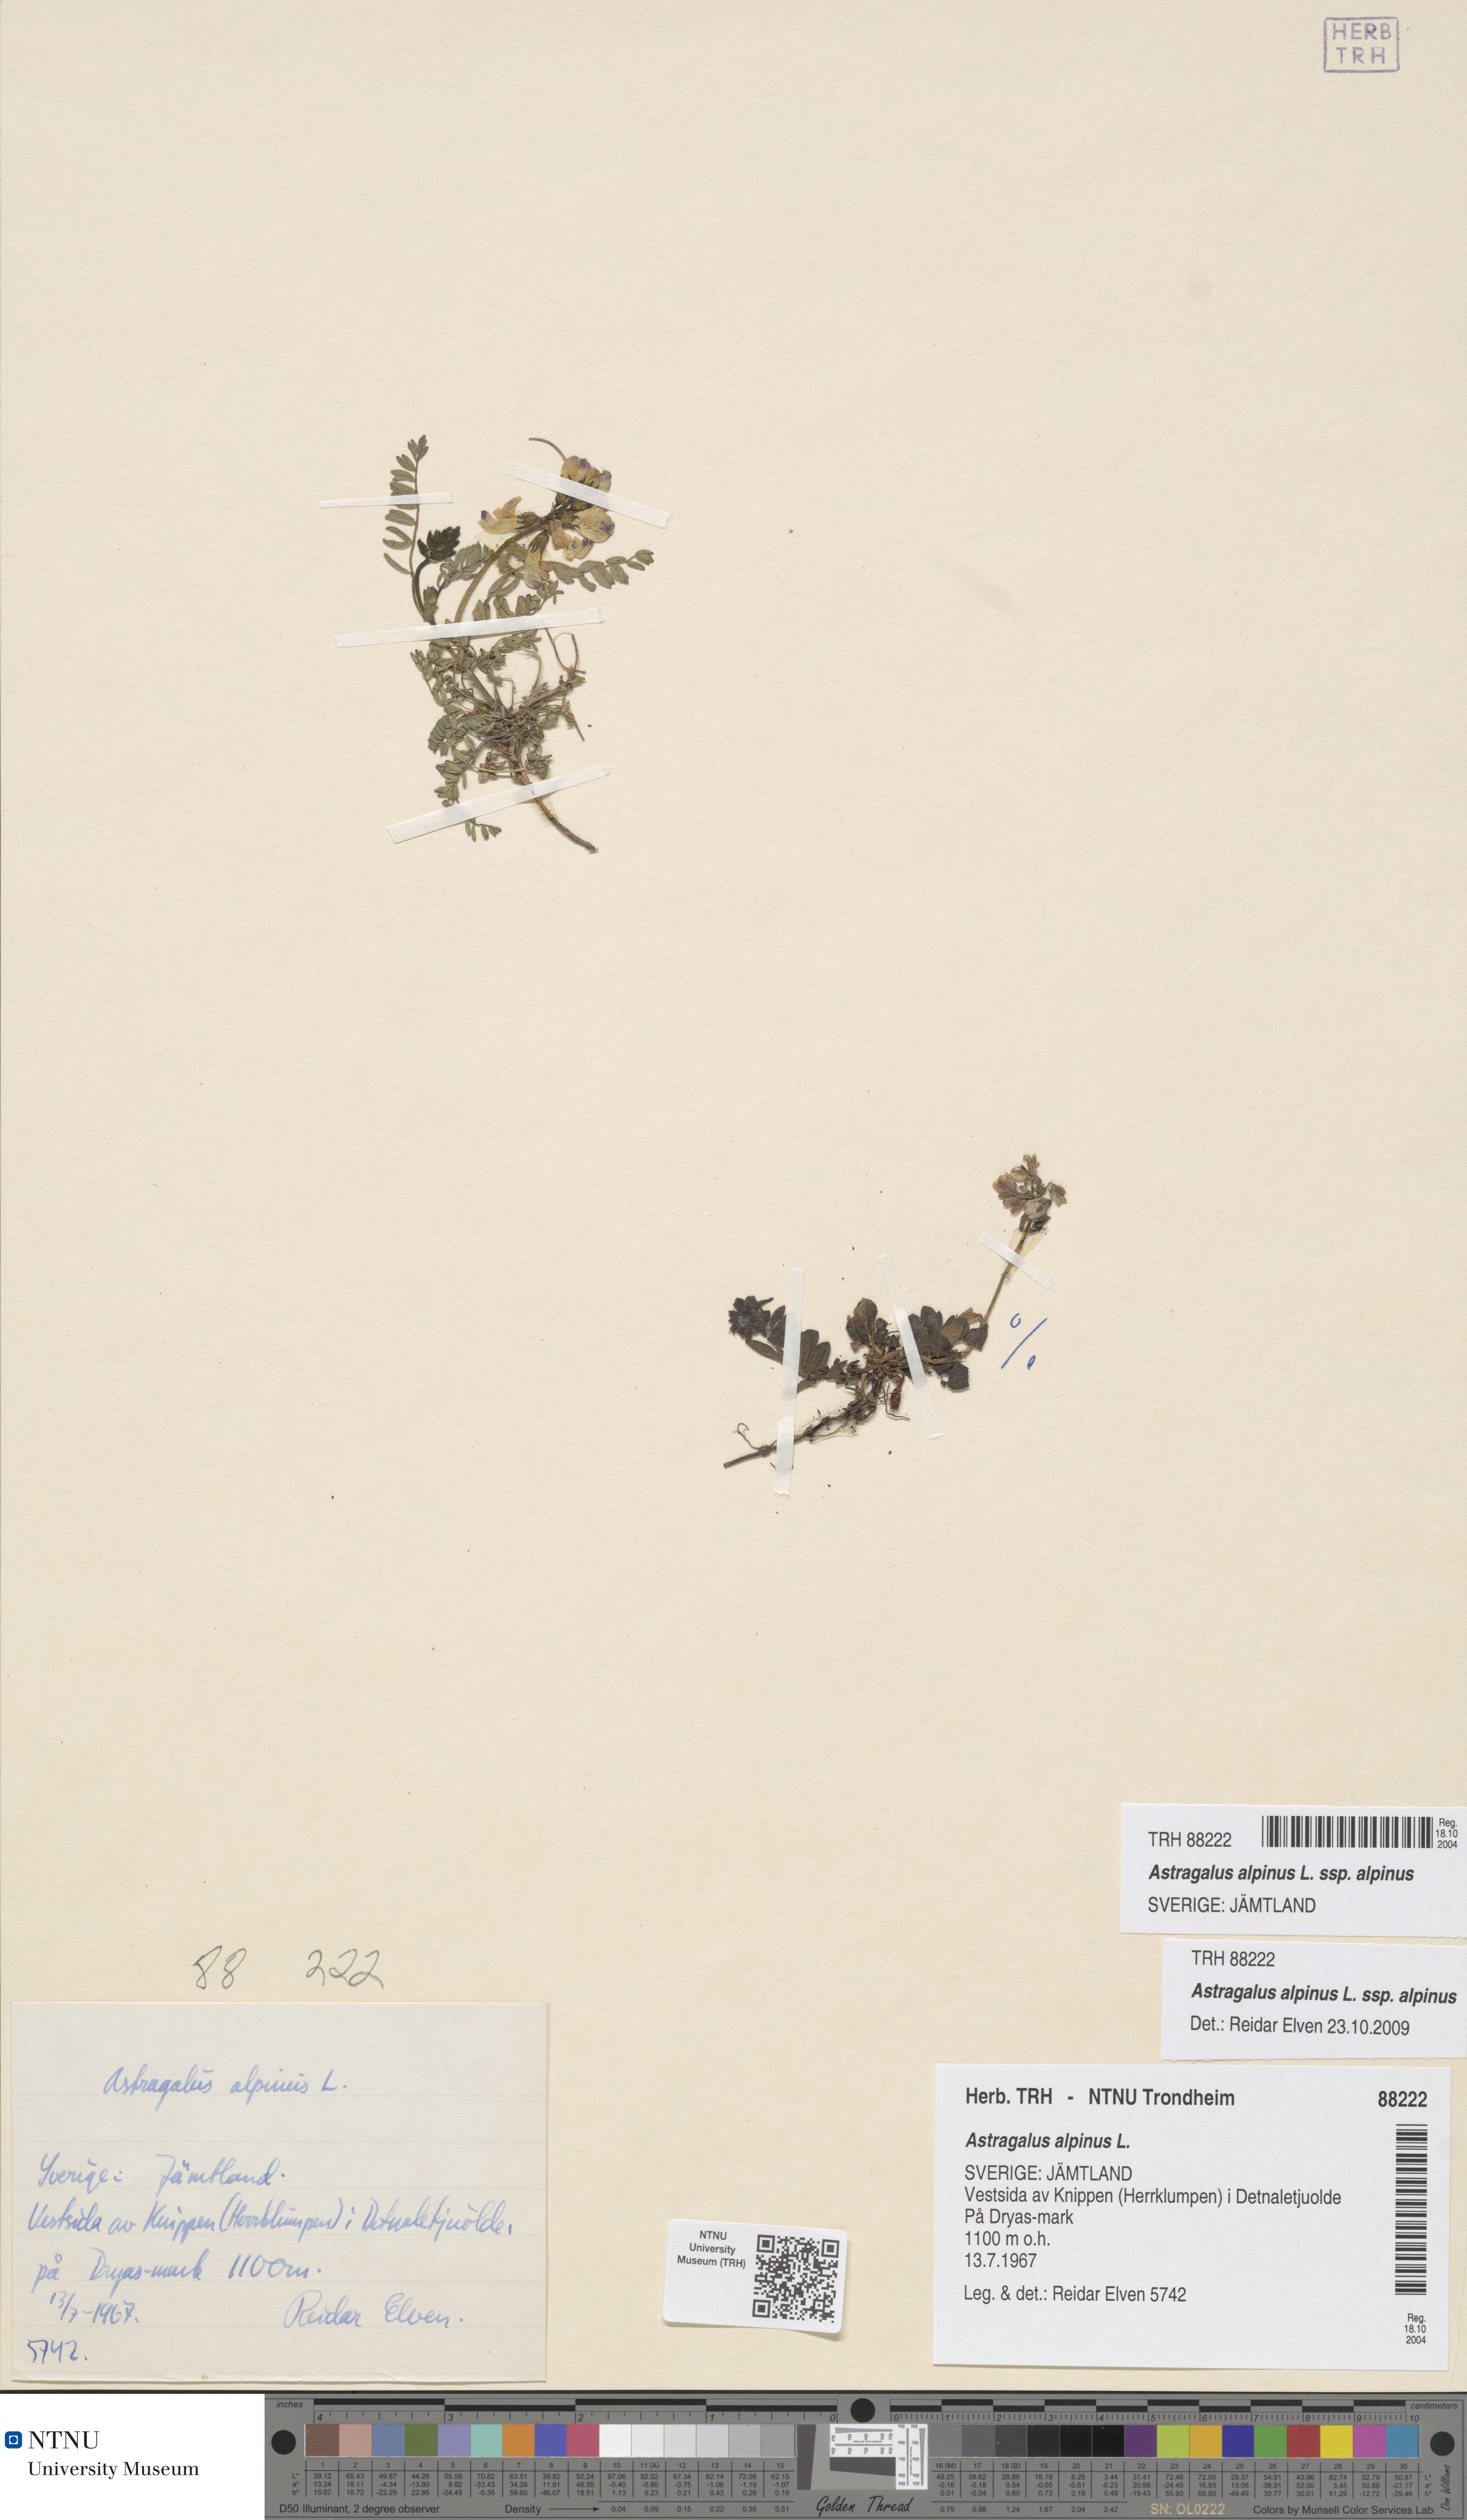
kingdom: Plantae
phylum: Tracheophyta
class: Magnoliopsida
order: Fabales
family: Fabaceae
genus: Astragalus
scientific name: Astragalus alpinus
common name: Alpine milk-vetch
